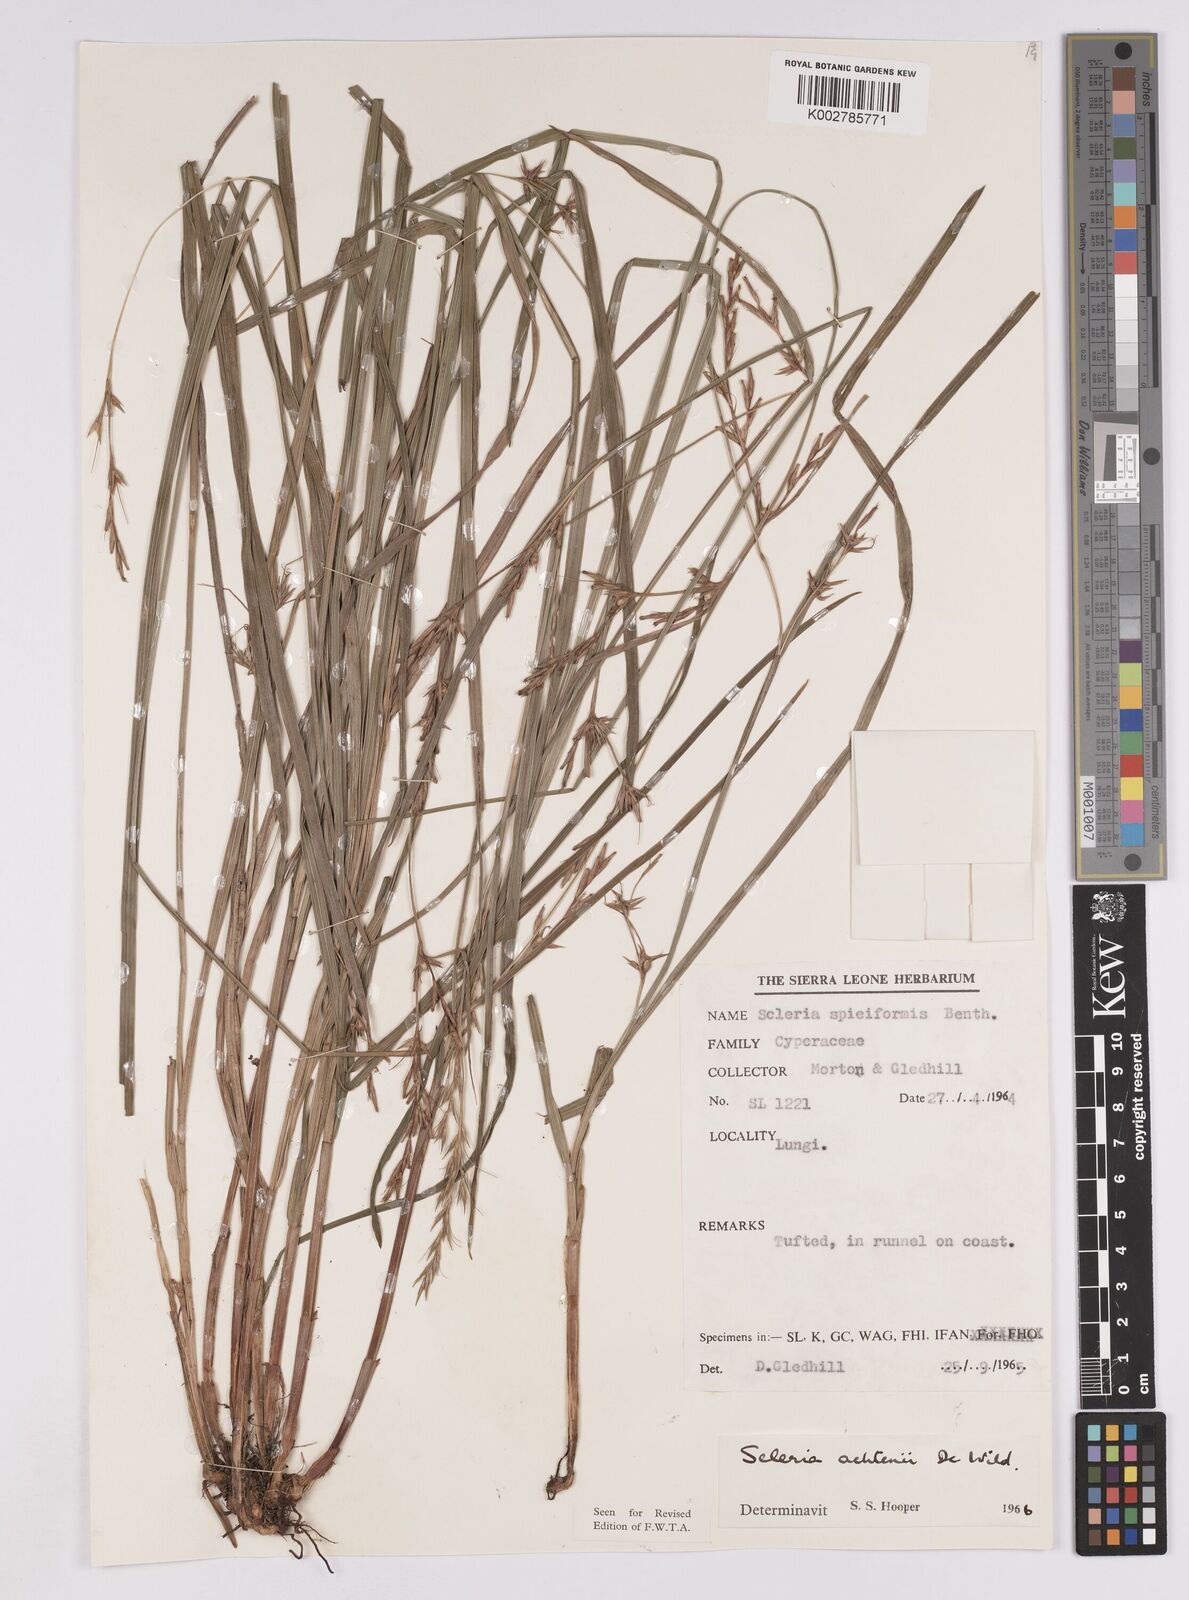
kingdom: Plantae
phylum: Tracheophyta
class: Liliopsida
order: Poales
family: Cyperaceae
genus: Scleria
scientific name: Scleria achtenii
